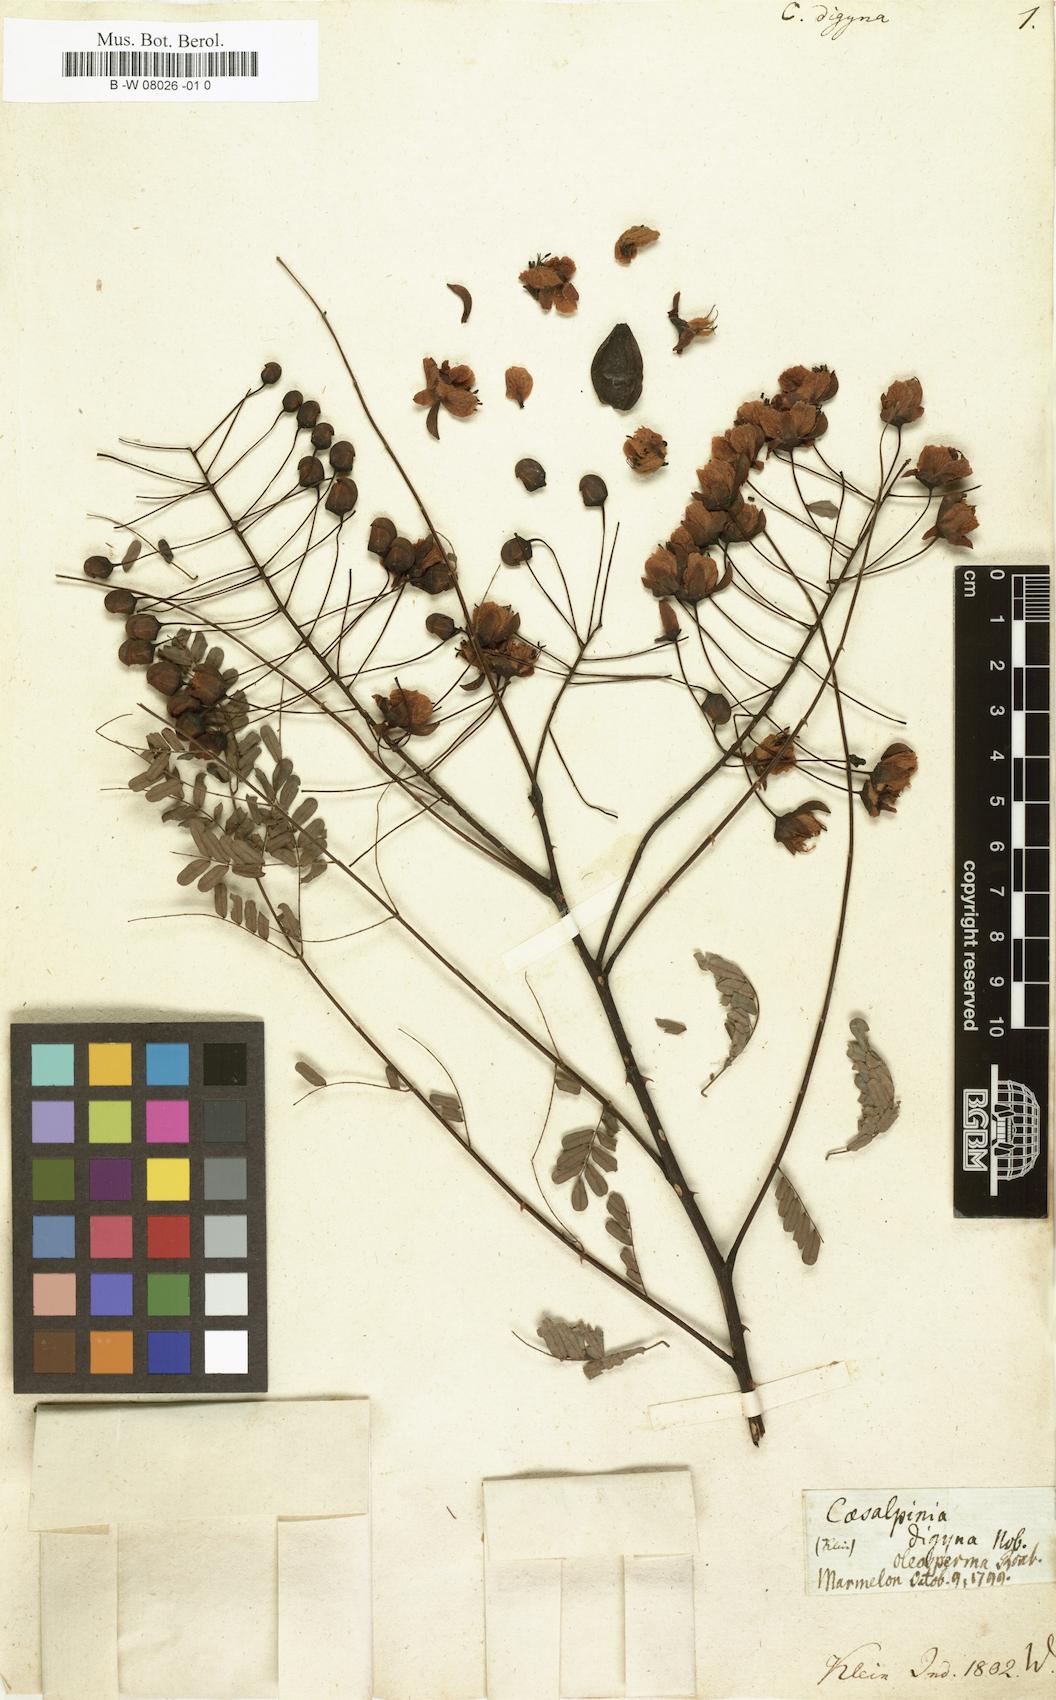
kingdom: Plantae
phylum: Tracheophyta
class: Magnoliopsida
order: Fabales
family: Fabaceae
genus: Moullava
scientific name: Moullava digyna
